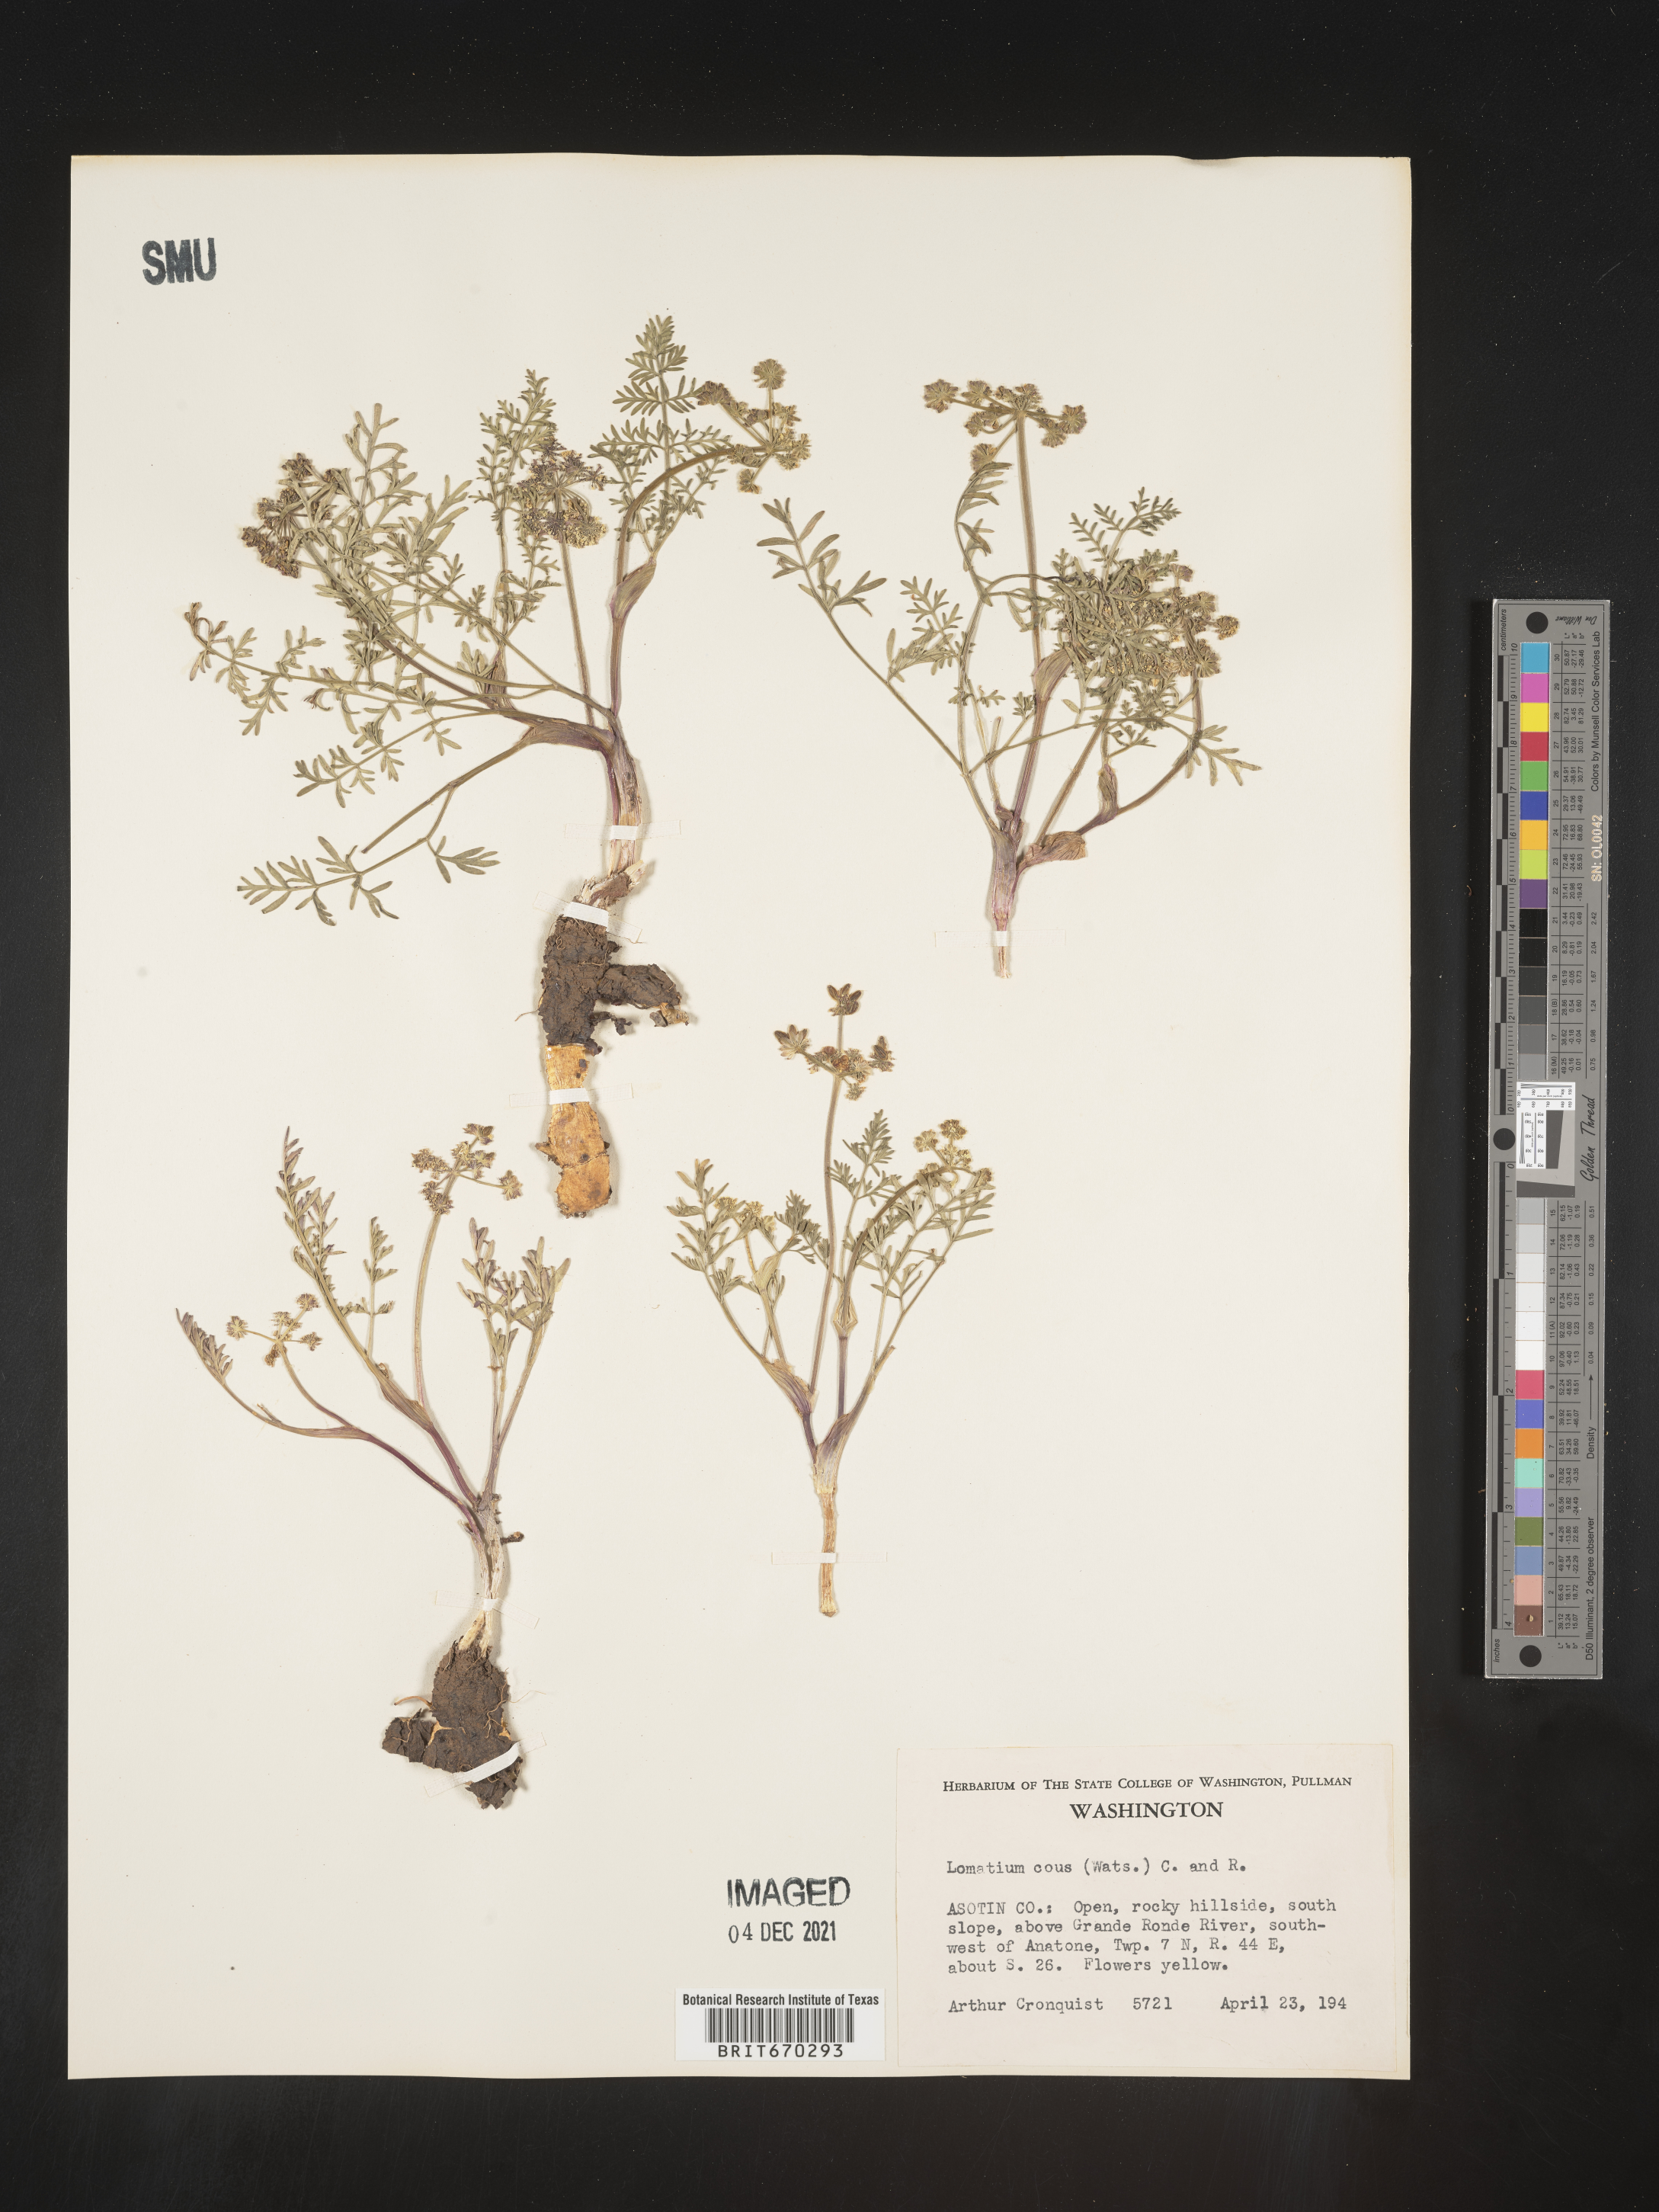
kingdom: Plantae
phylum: Tracheophyta
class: Magnoliopsida
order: Apiales
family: Apiaceae
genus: Lomatium
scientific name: Lomatium cous
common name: Biscuit-root
